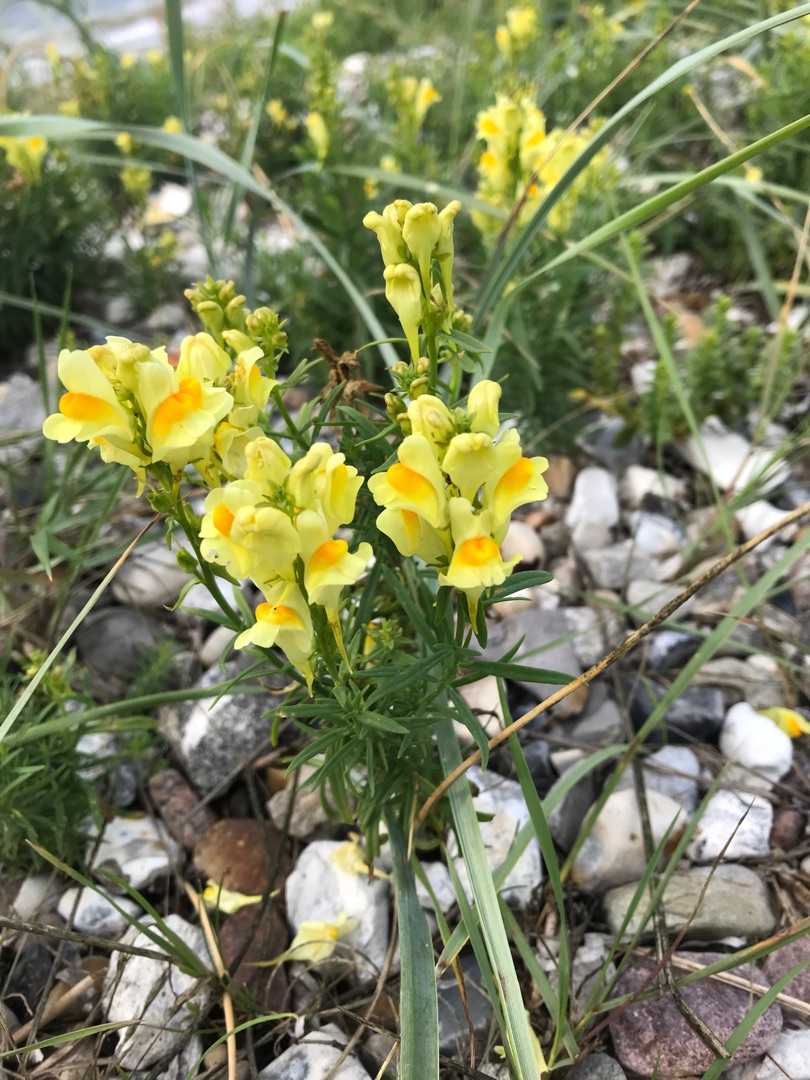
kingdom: Plantae
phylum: Tracheophyta
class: Magnoliopsida
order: Lamiales
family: Plantaginaceae
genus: Linaria
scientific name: Linaria vulgaris
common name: Almindelig torskemund
